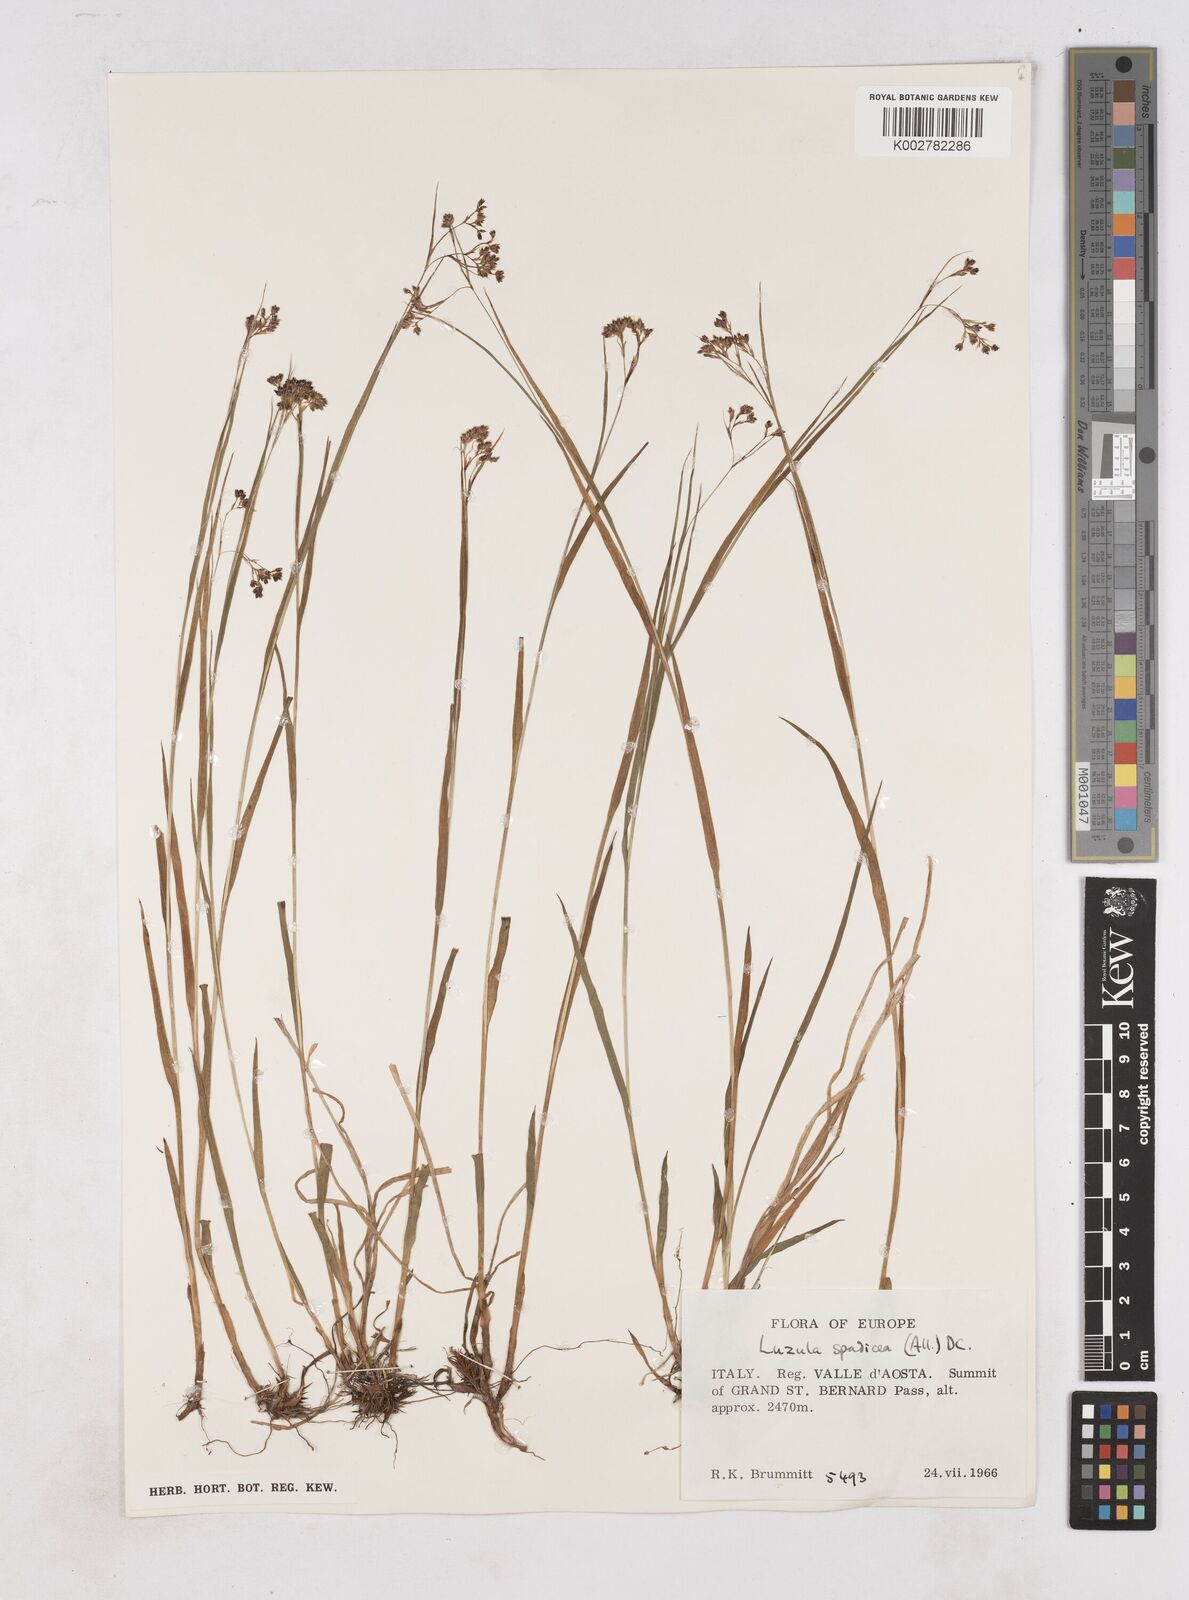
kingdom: Plantae
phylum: Tracheophyta
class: Liliopsida
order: Poales
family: Juncaceae
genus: Luzula
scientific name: Luzula alpinopilosa
